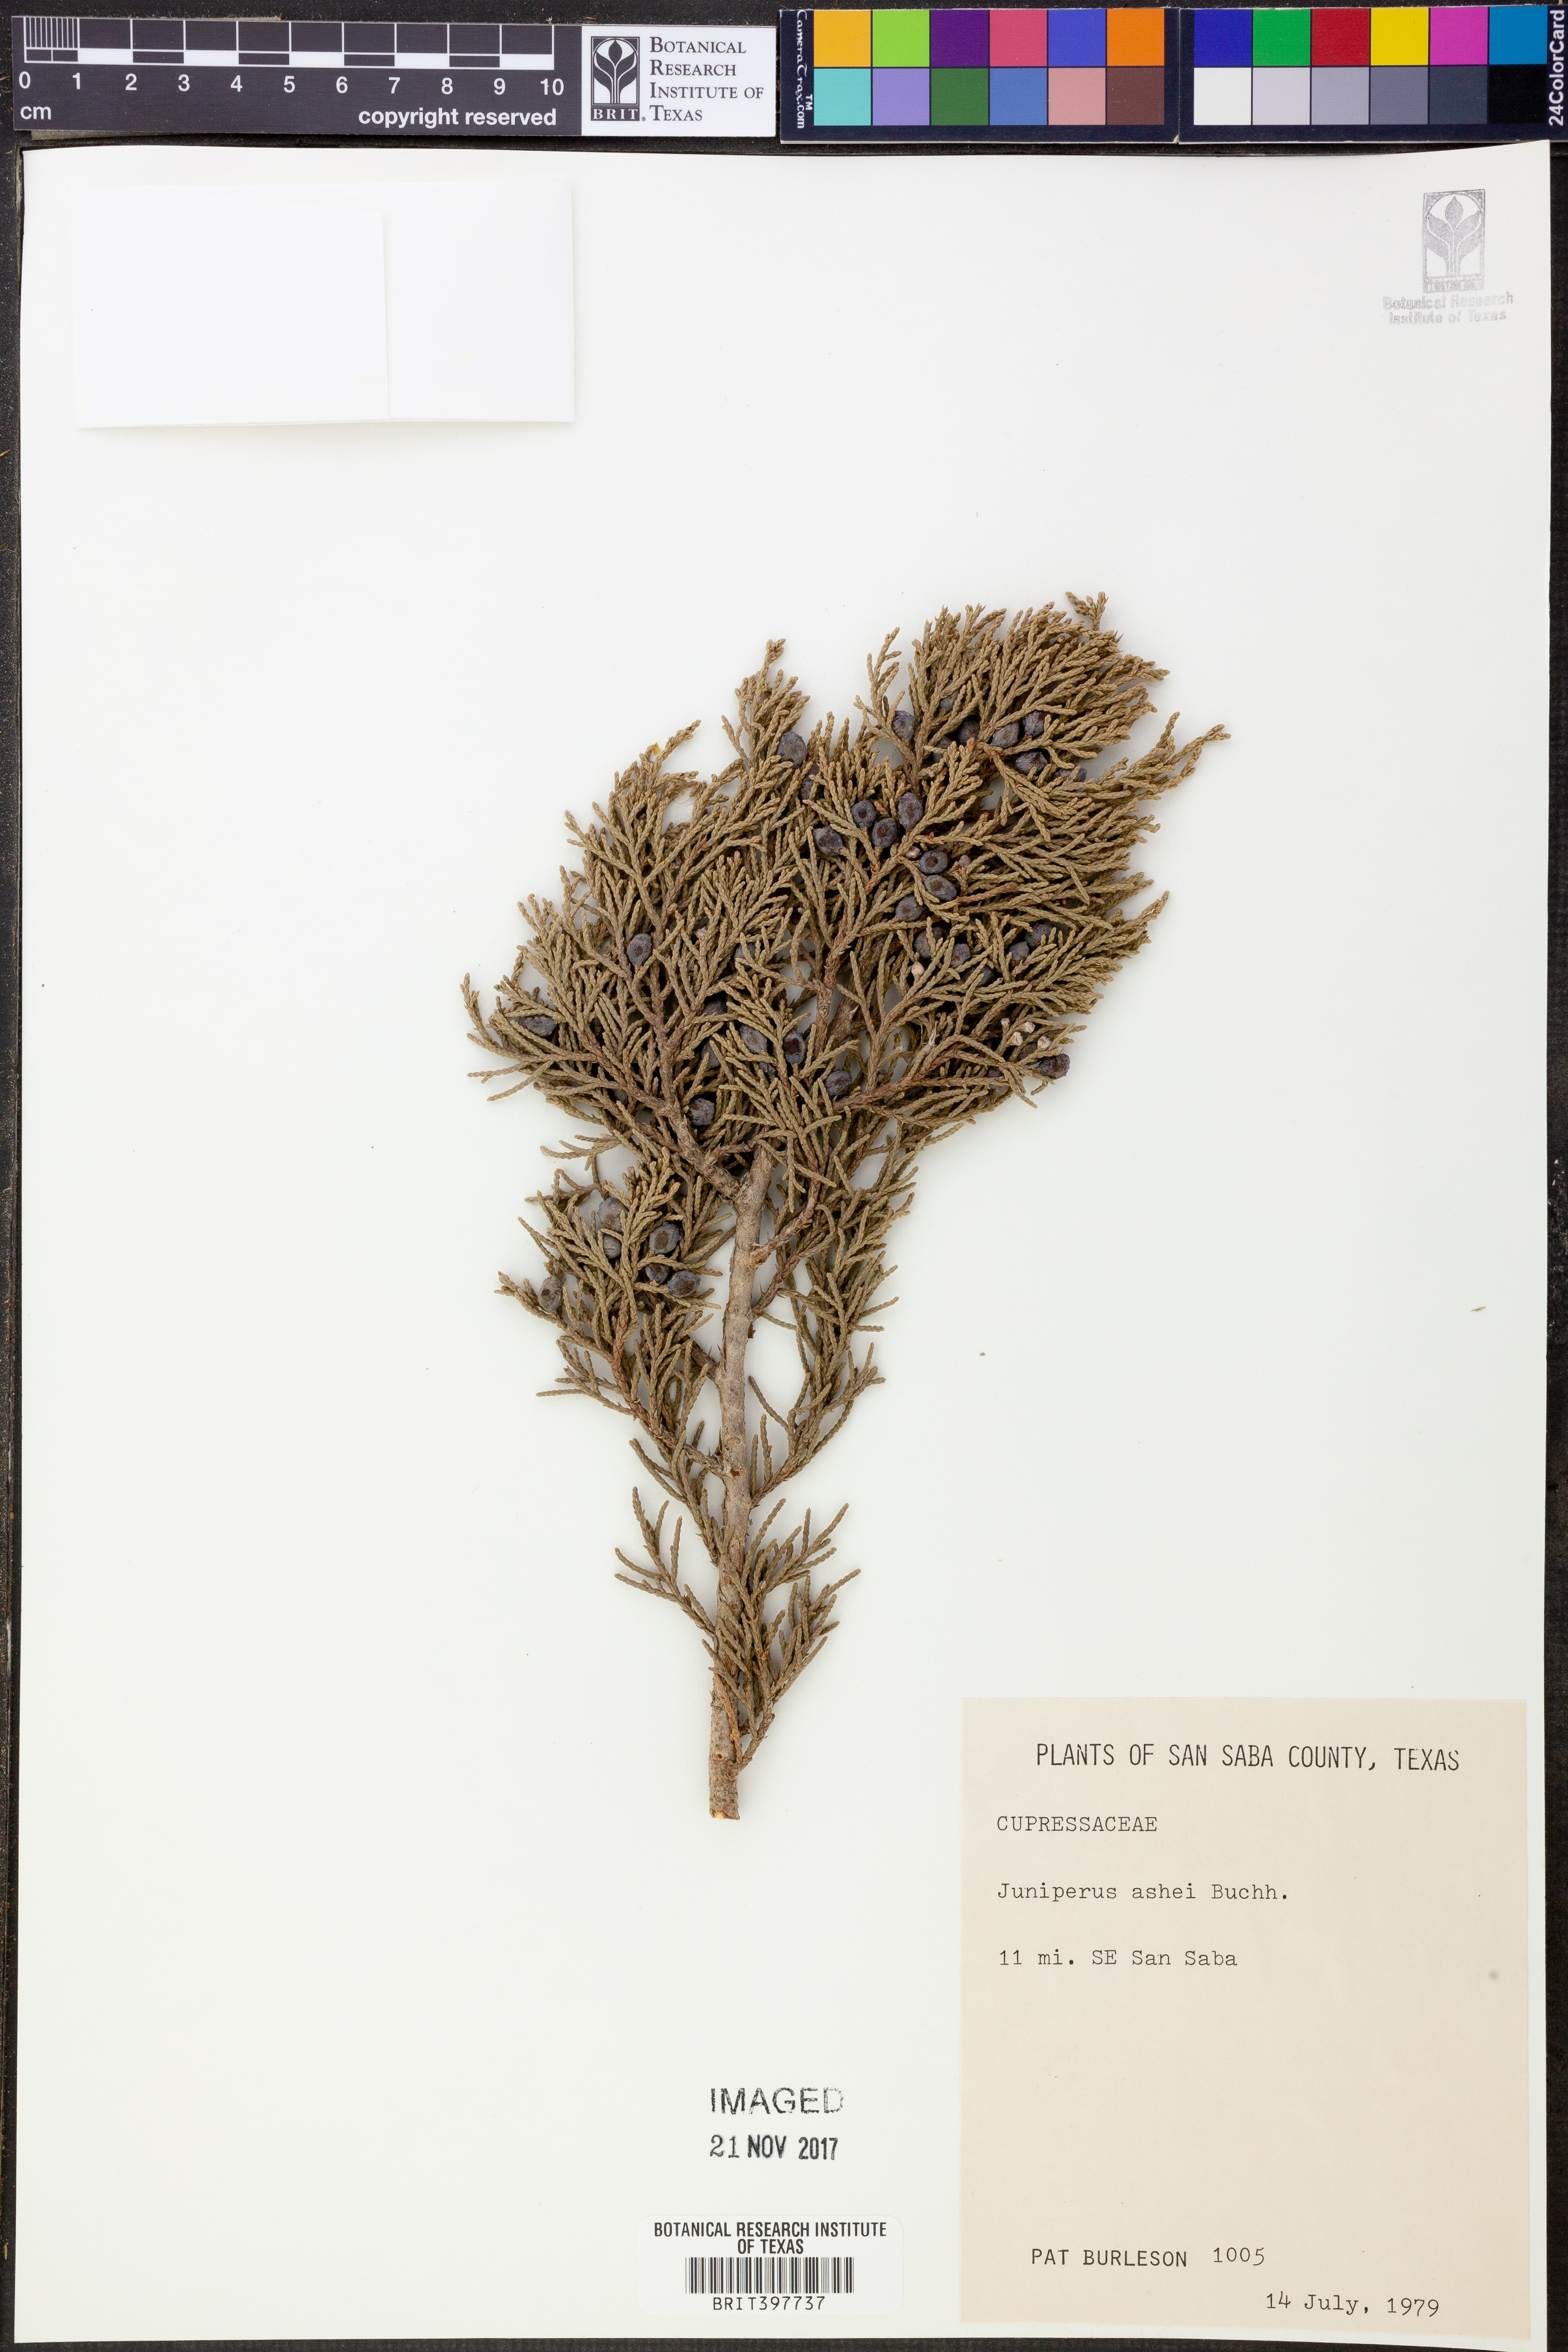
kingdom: Plantae
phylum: Tracheophyta
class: Pinopsida
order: Pinales
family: Cupressaceae
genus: Juniperus
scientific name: Juniperus ashei
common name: Mexican juniper
